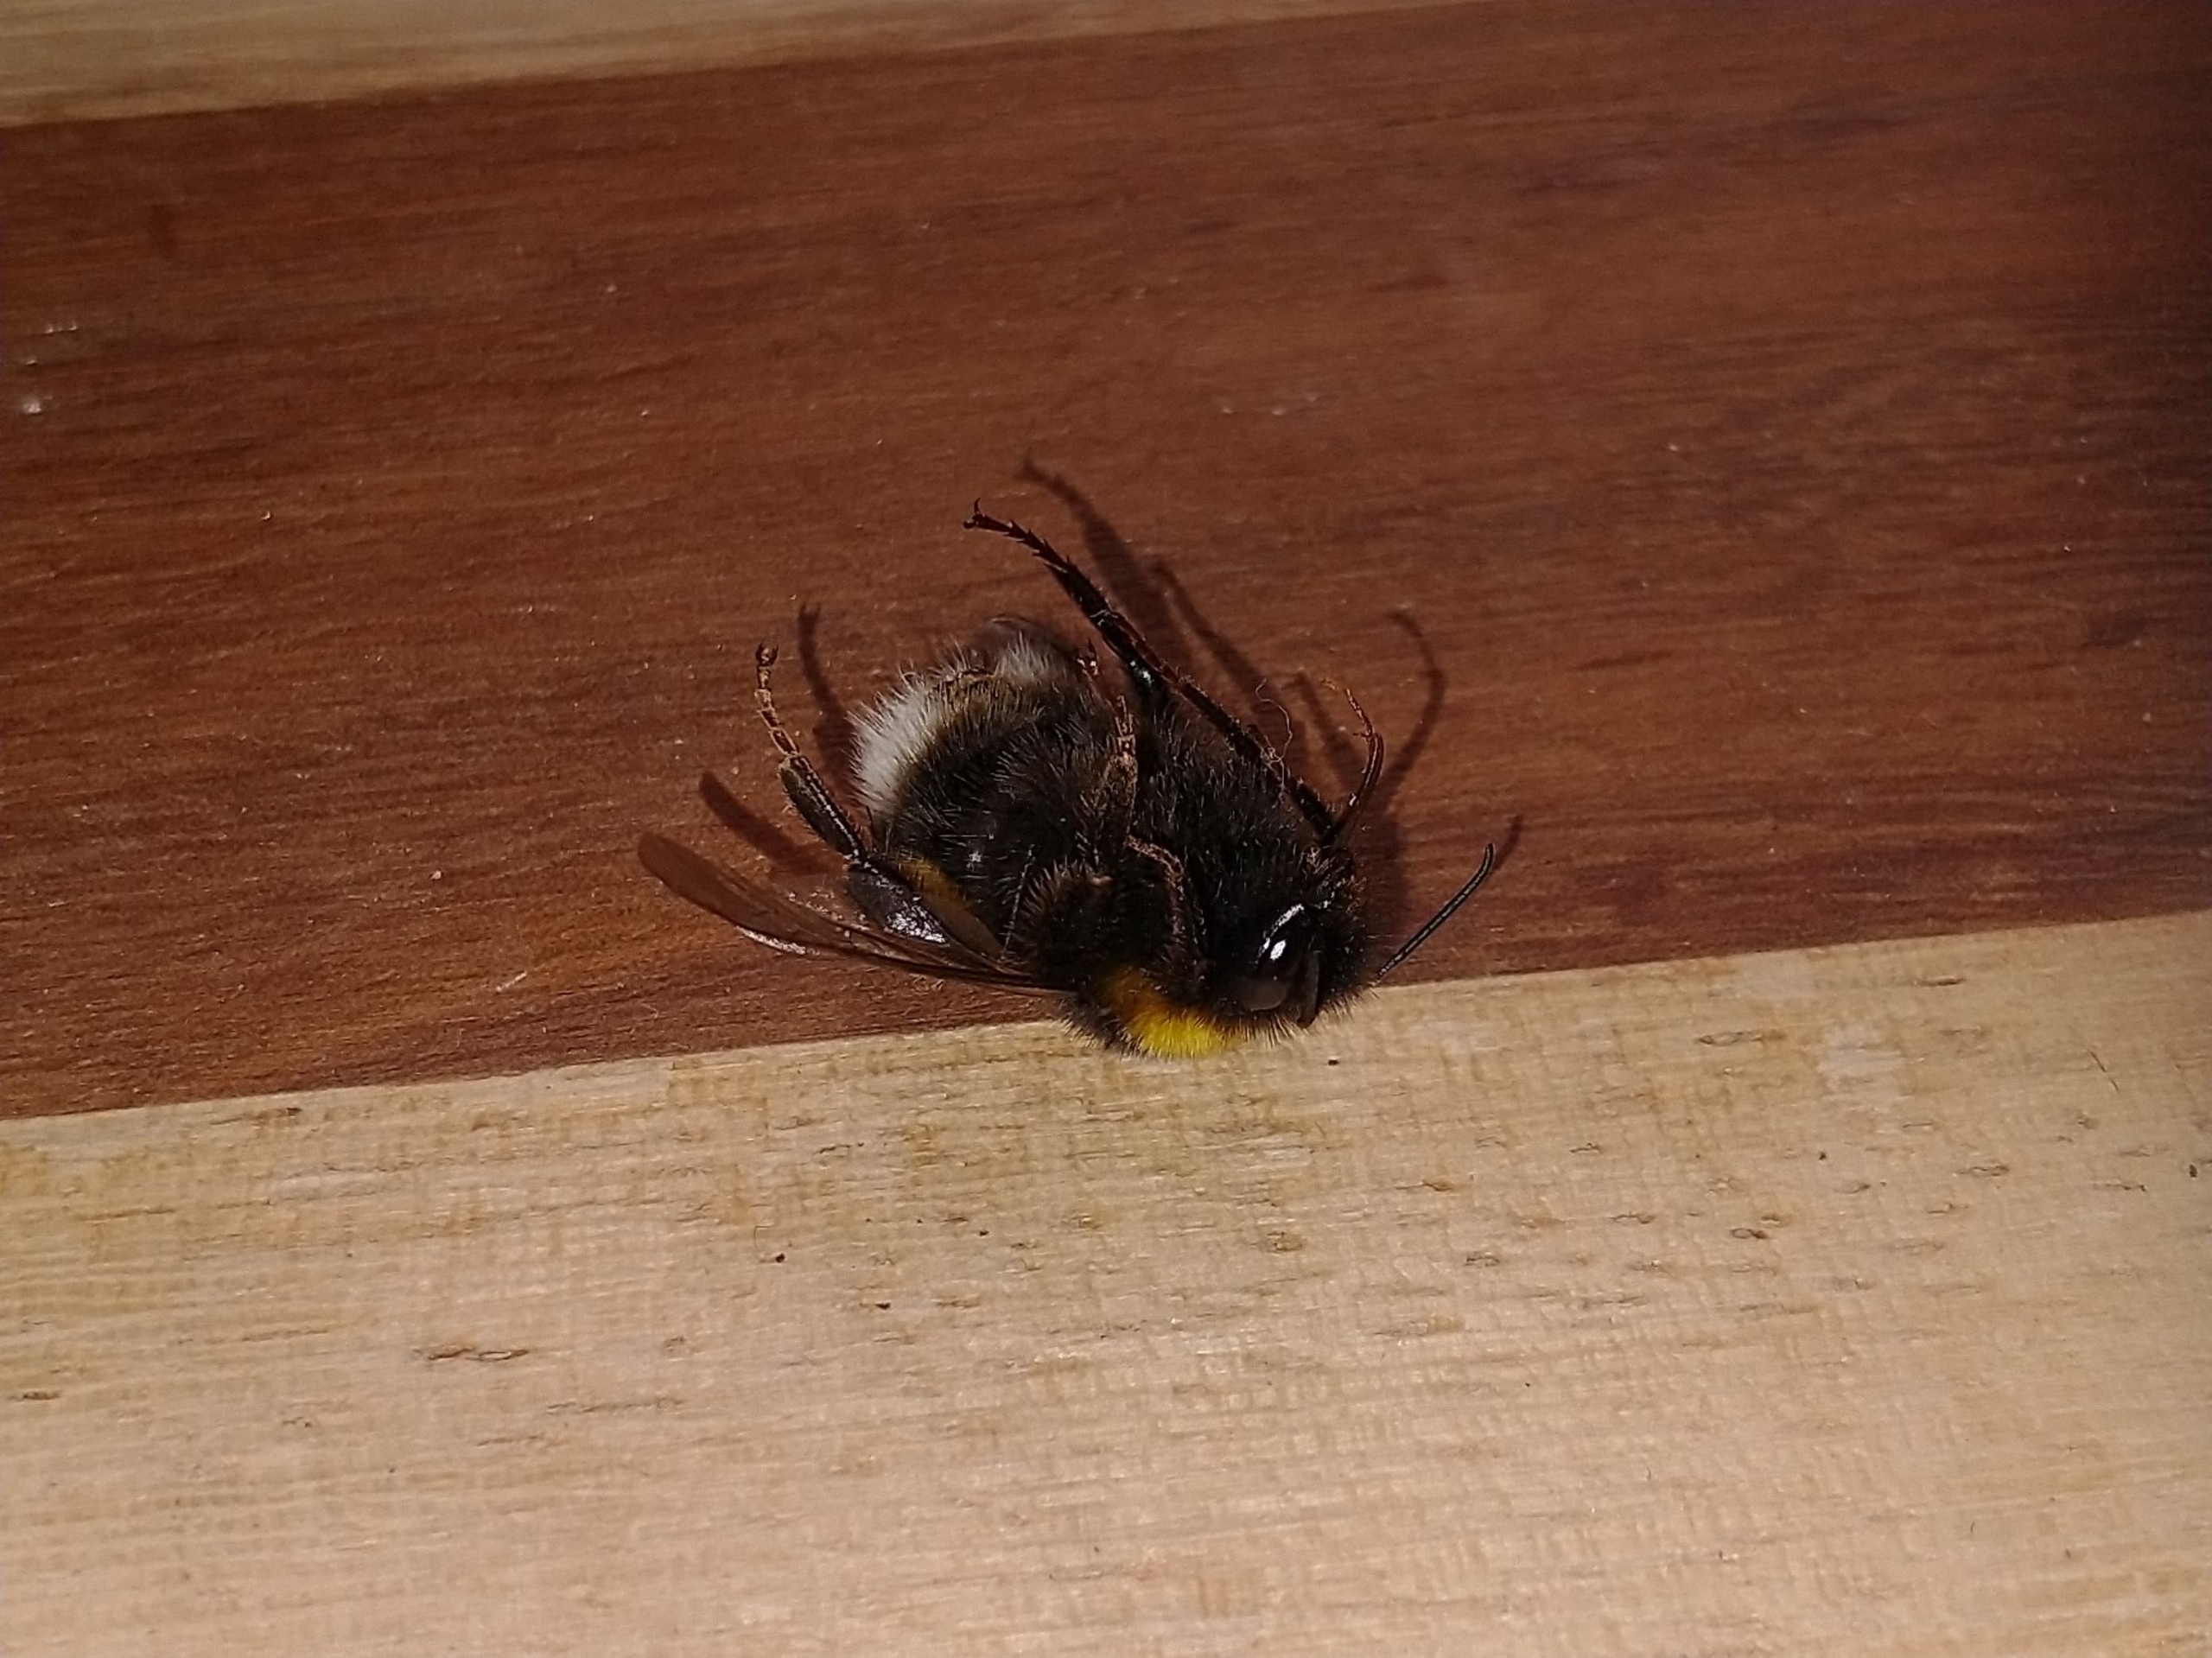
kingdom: Animalia
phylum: Arthropoda
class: Insecta
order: Hymenoptera
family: Apidae
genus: Bombus
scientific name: Bombus
